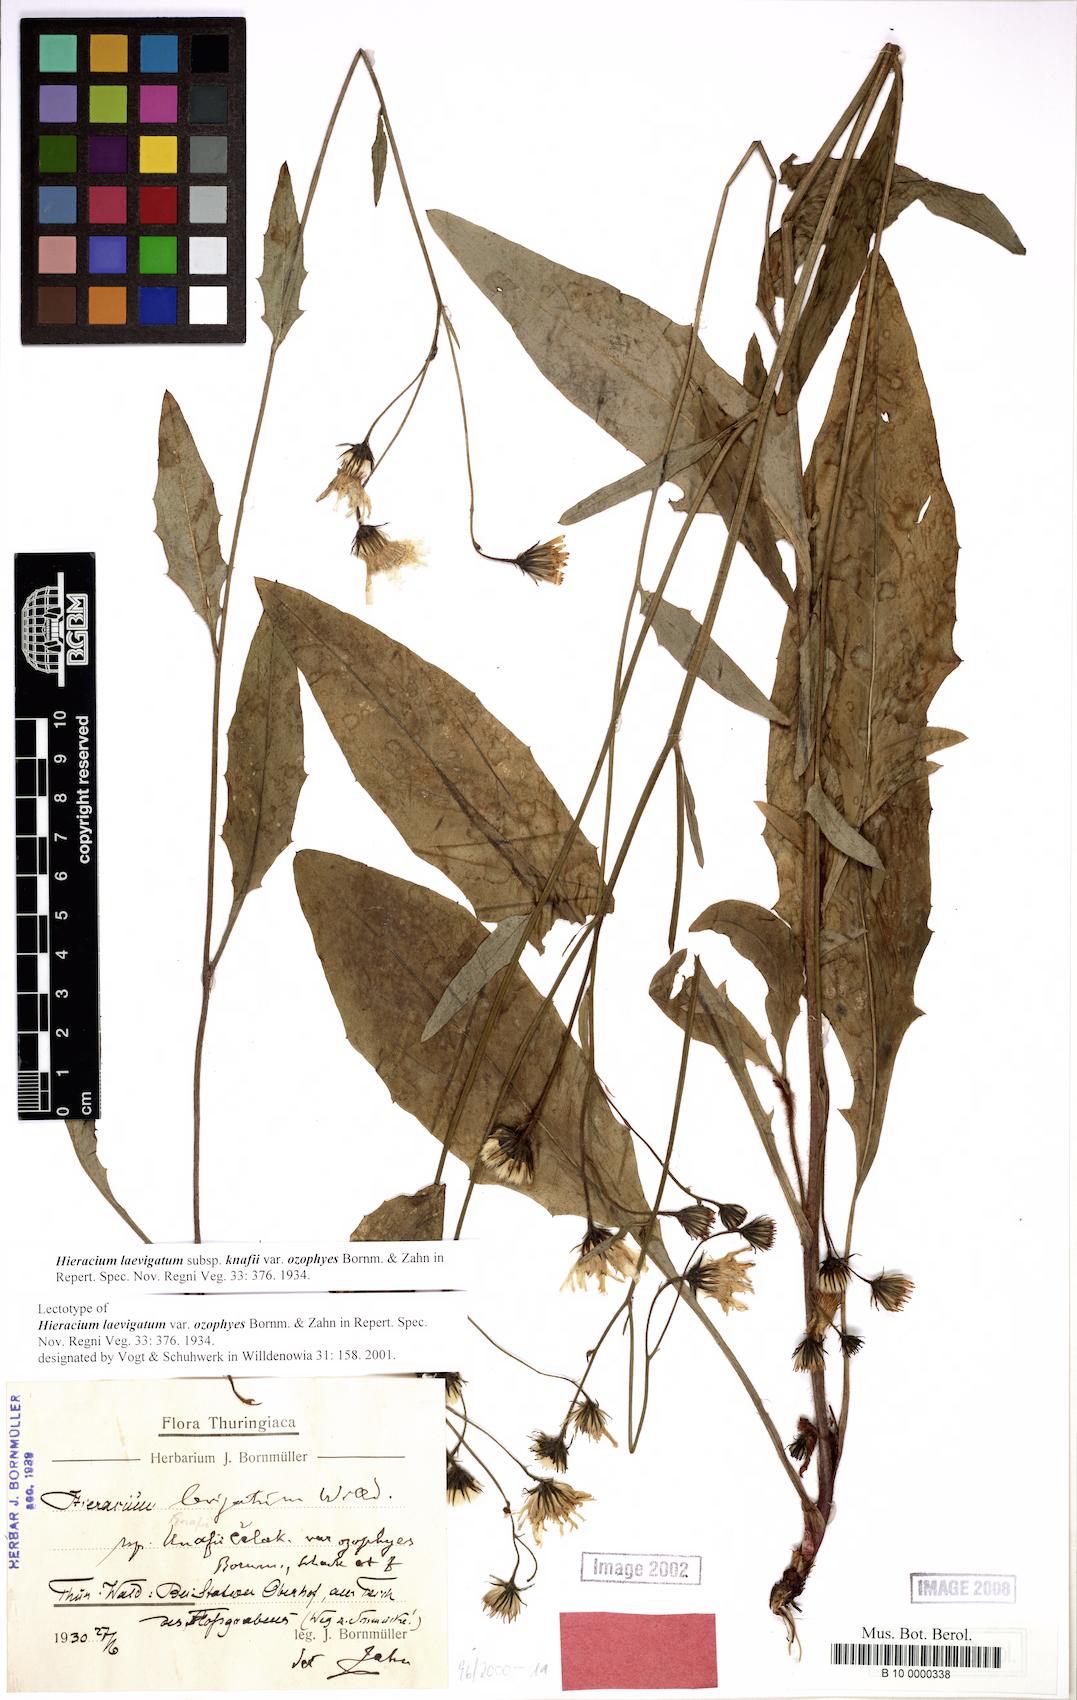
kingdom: Plantae
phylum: Tracheophyta
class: Magnoliopsida
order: Asterales
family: Asteraceae
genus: Hieracium
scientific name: Hieracium laevigatum
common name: Smooth hawkweed
